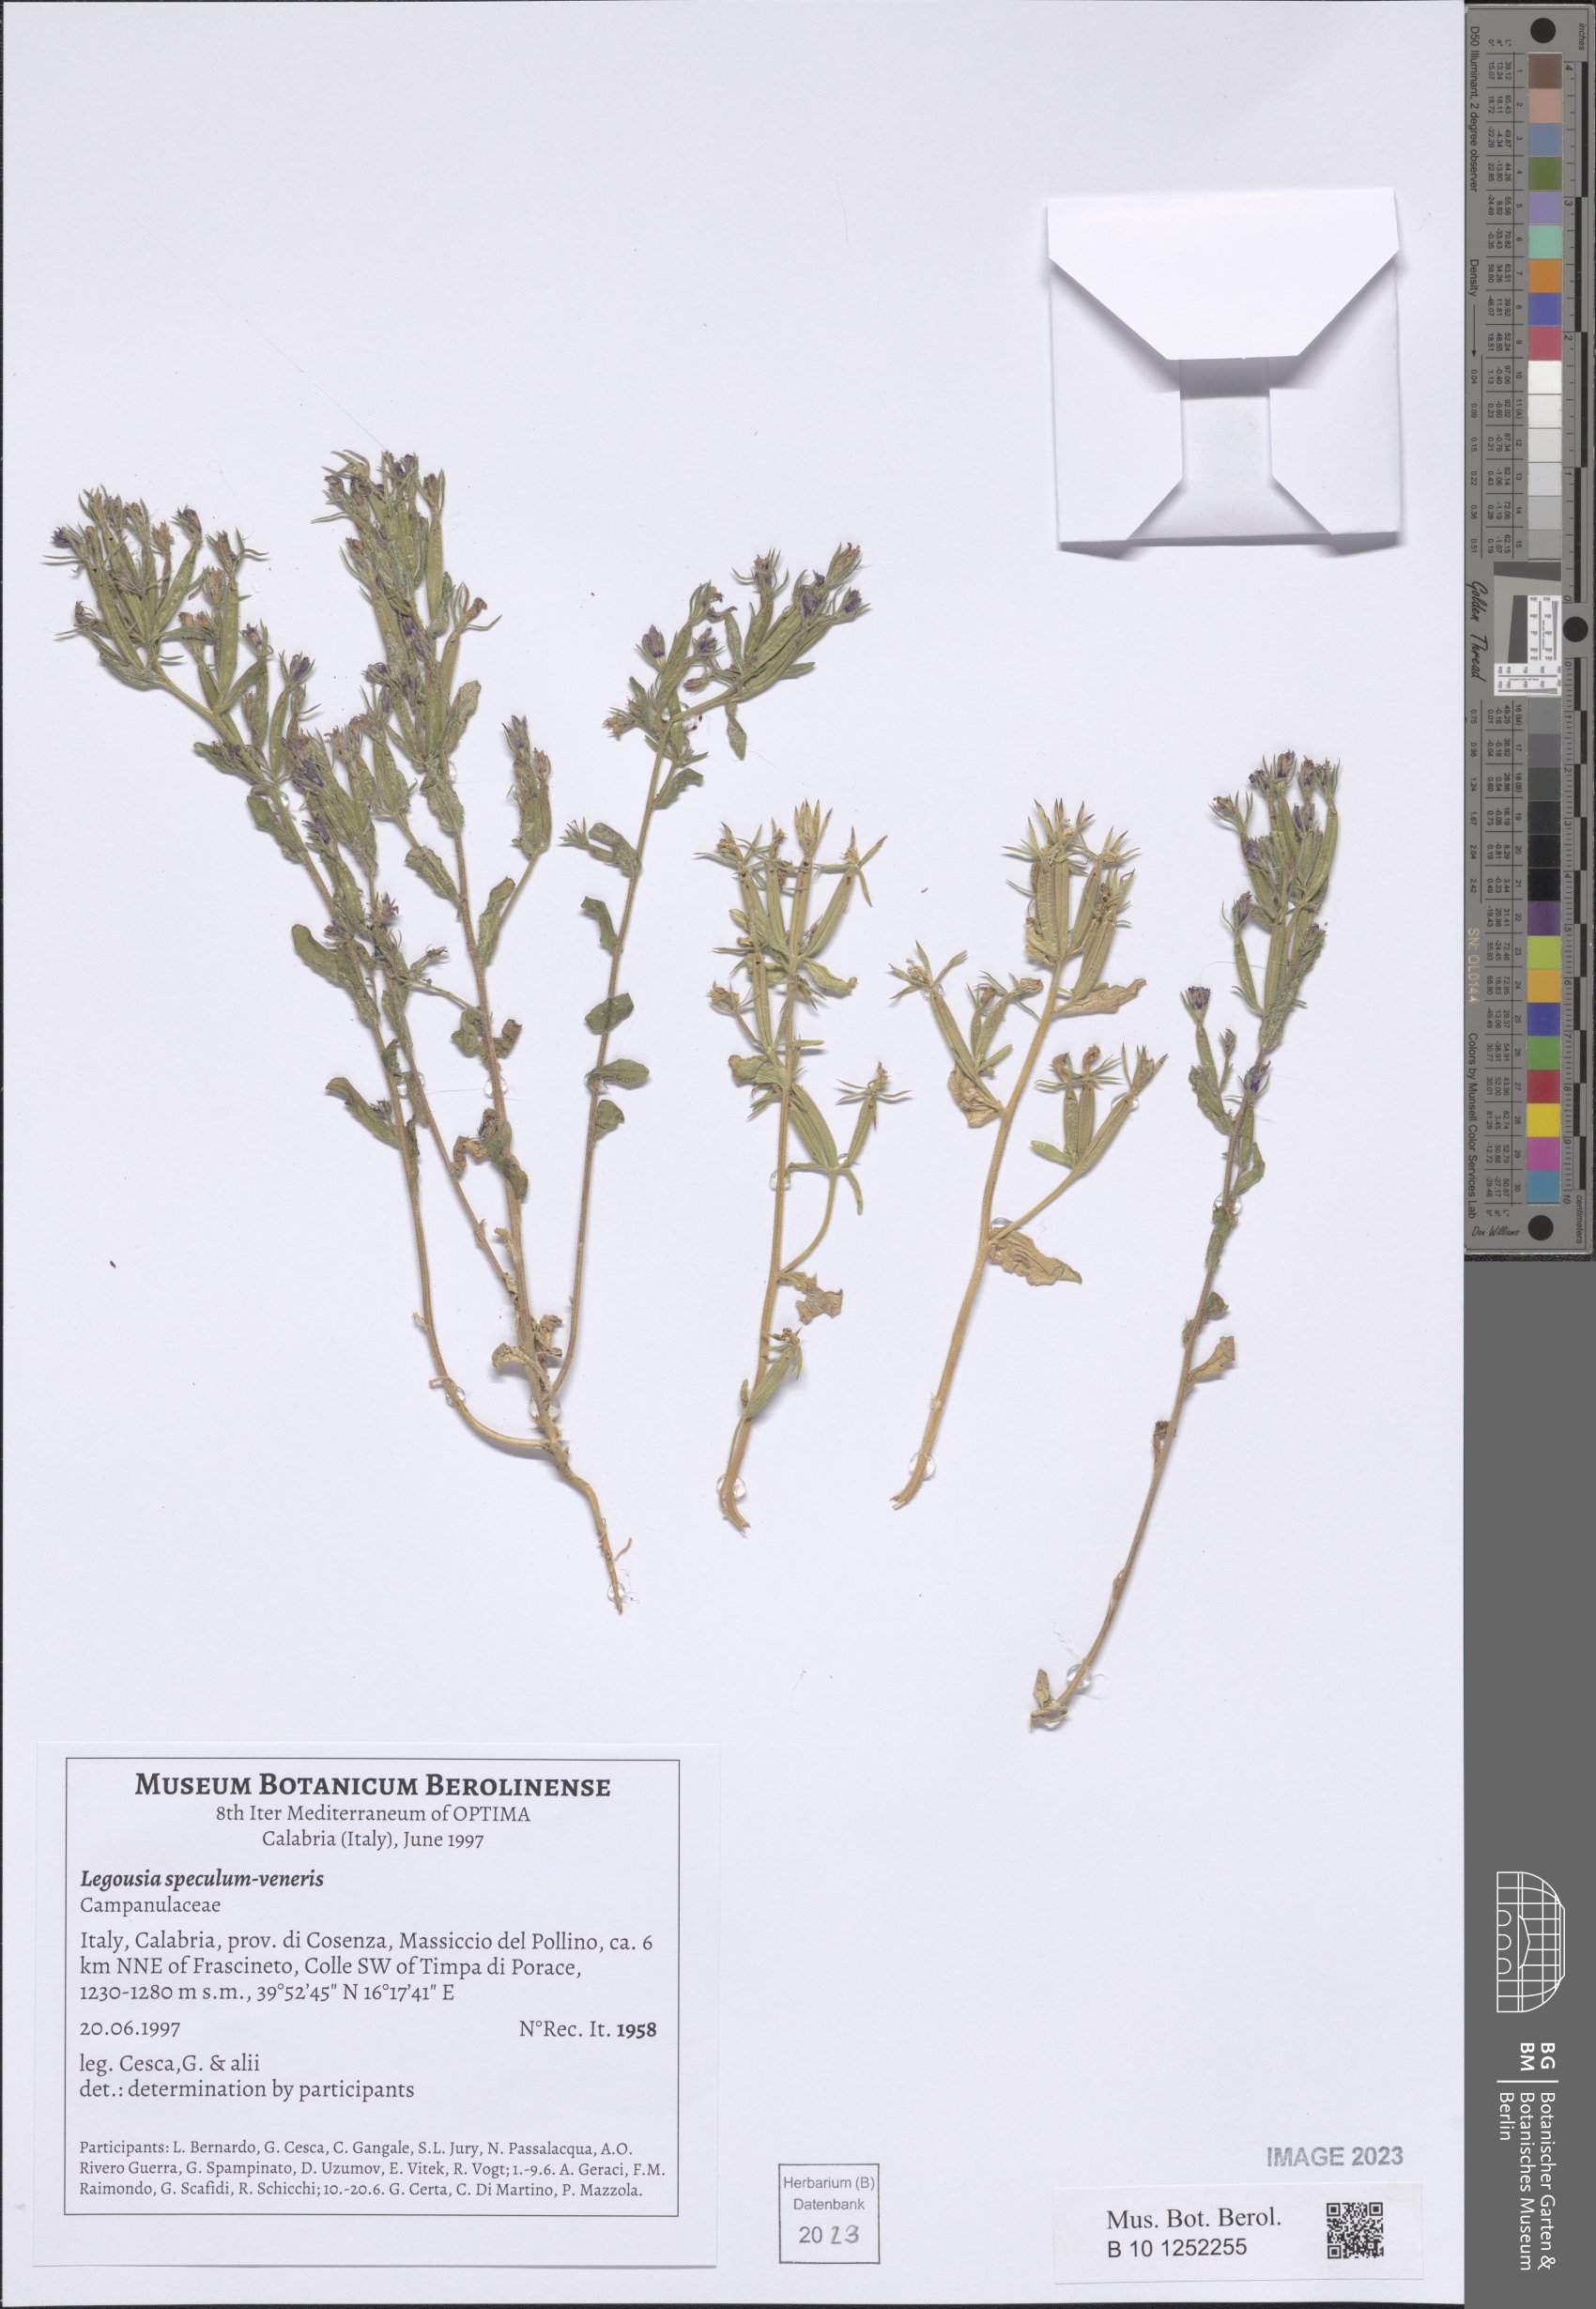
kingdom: Plantae
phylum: Tracheophyta
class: Magnoliopsida
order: Asterales
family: Campanulaceae
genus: Legousia
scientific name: Legousia speculum-veneris
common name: Large venus's-looking-glass
